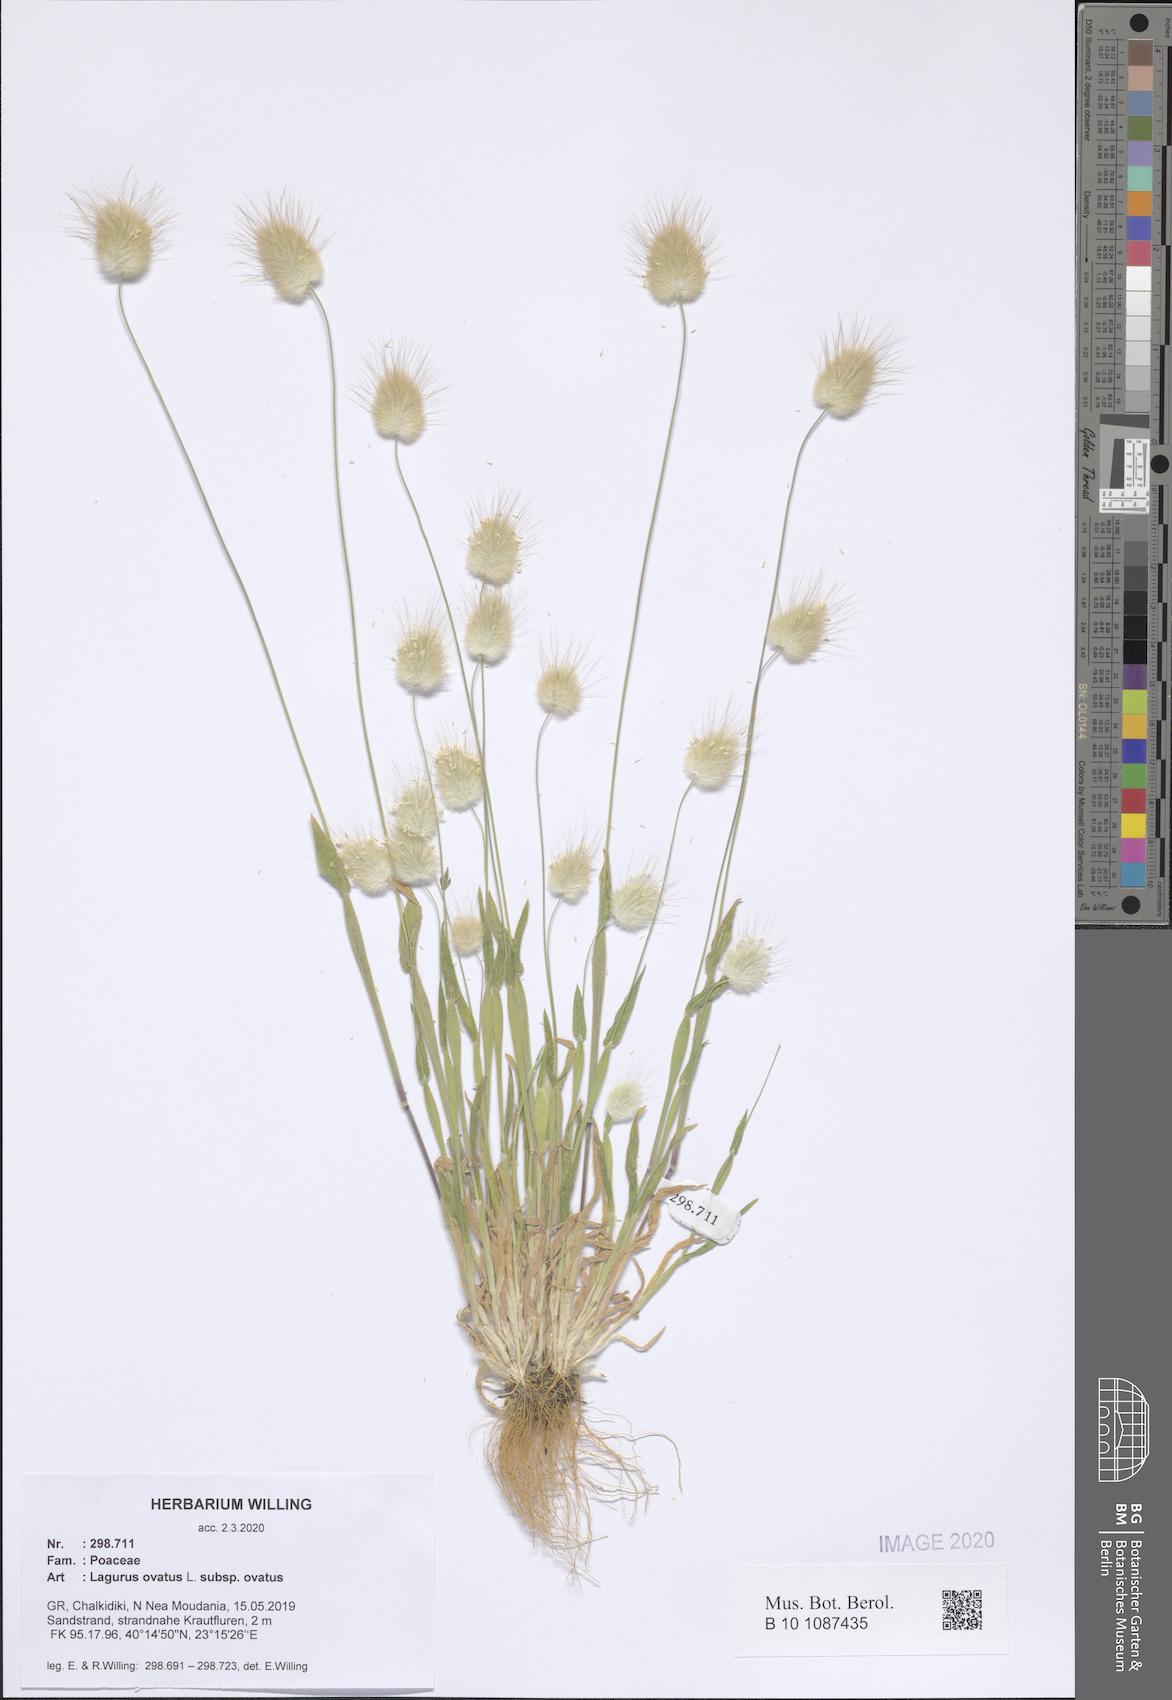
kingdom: Plantae
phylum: Tracheophyta
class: Liliopsida
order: Poales
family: Poaceae
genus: Lagurus
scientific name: Lagurus ovatus
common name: Hare's-tail
